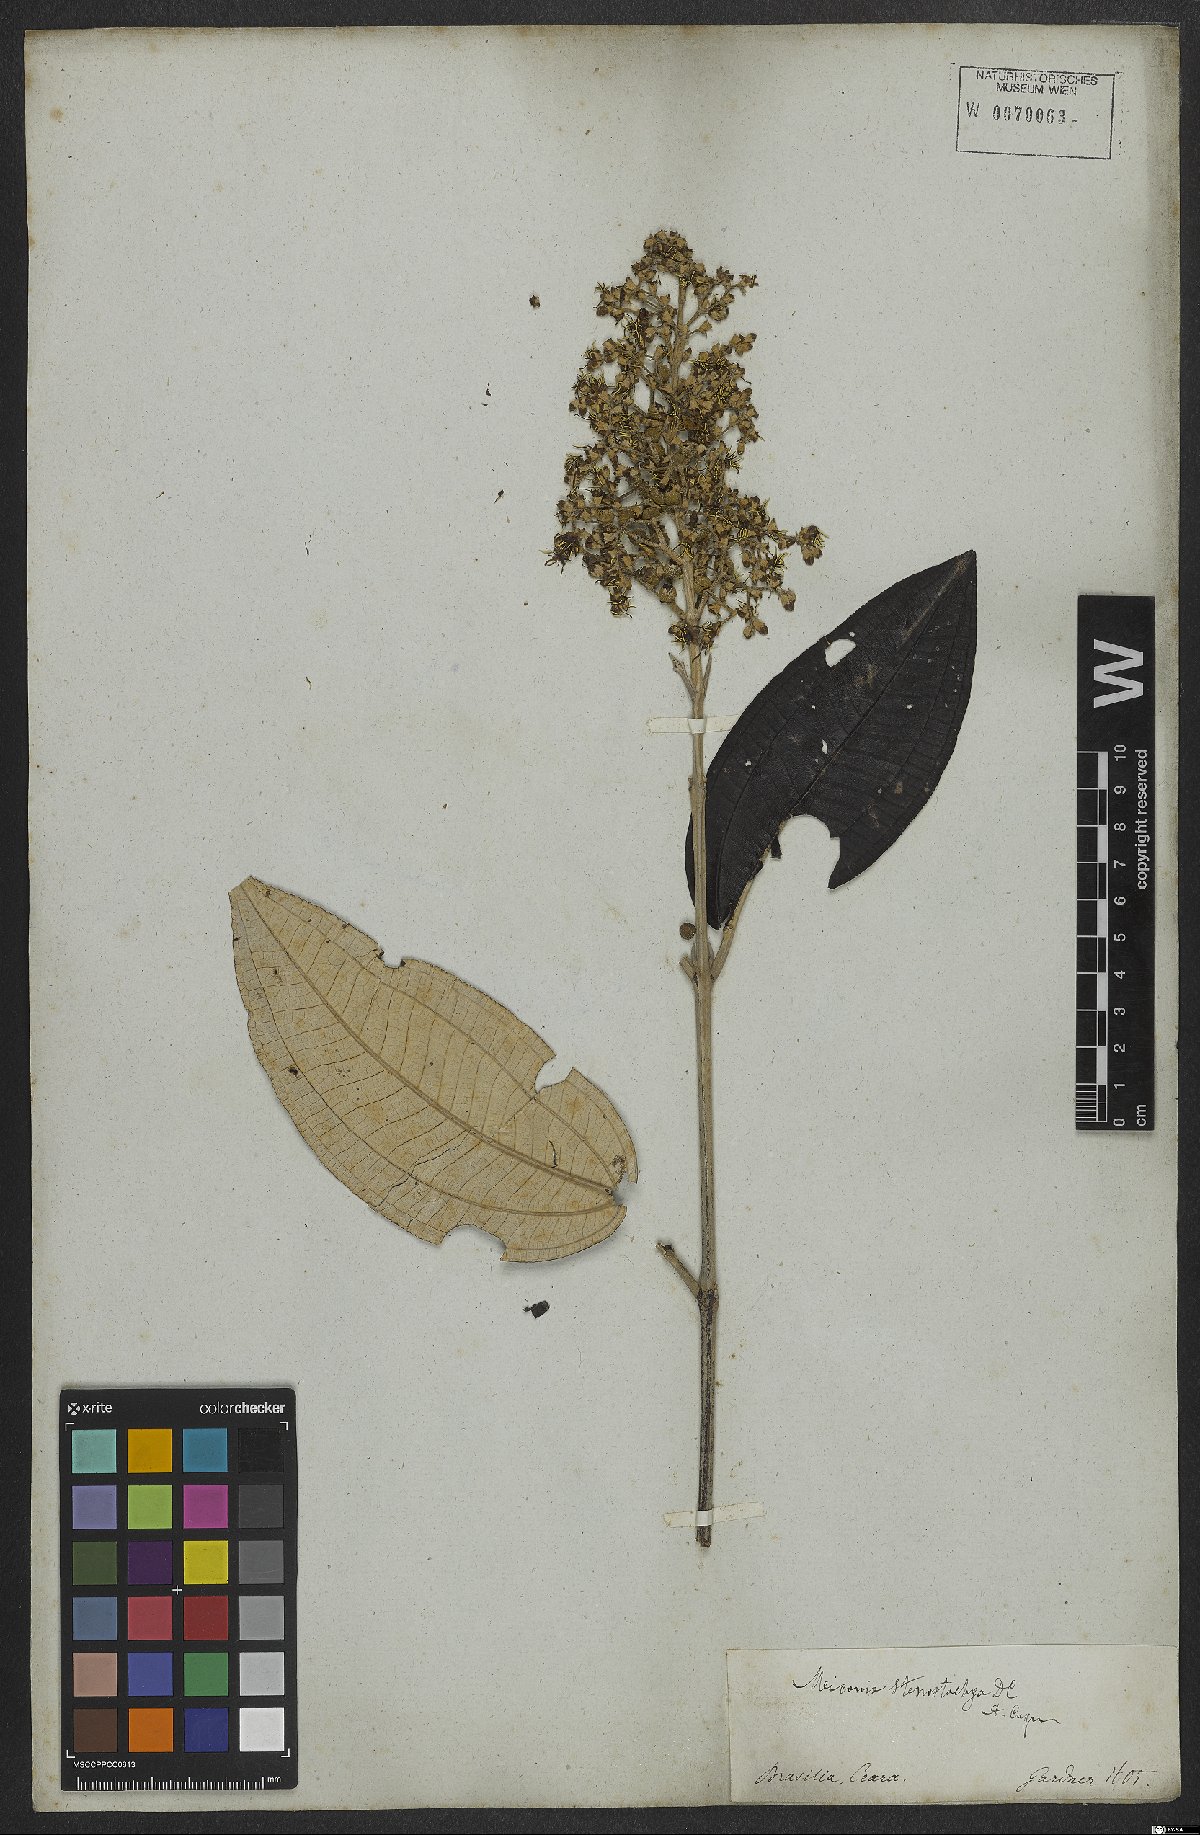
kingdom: Plantae
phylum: Tracheophyta
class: Magnoliopsida
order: Myrtales
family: Melastomataceae
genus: Miconia
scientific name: Miconia stenostachya
